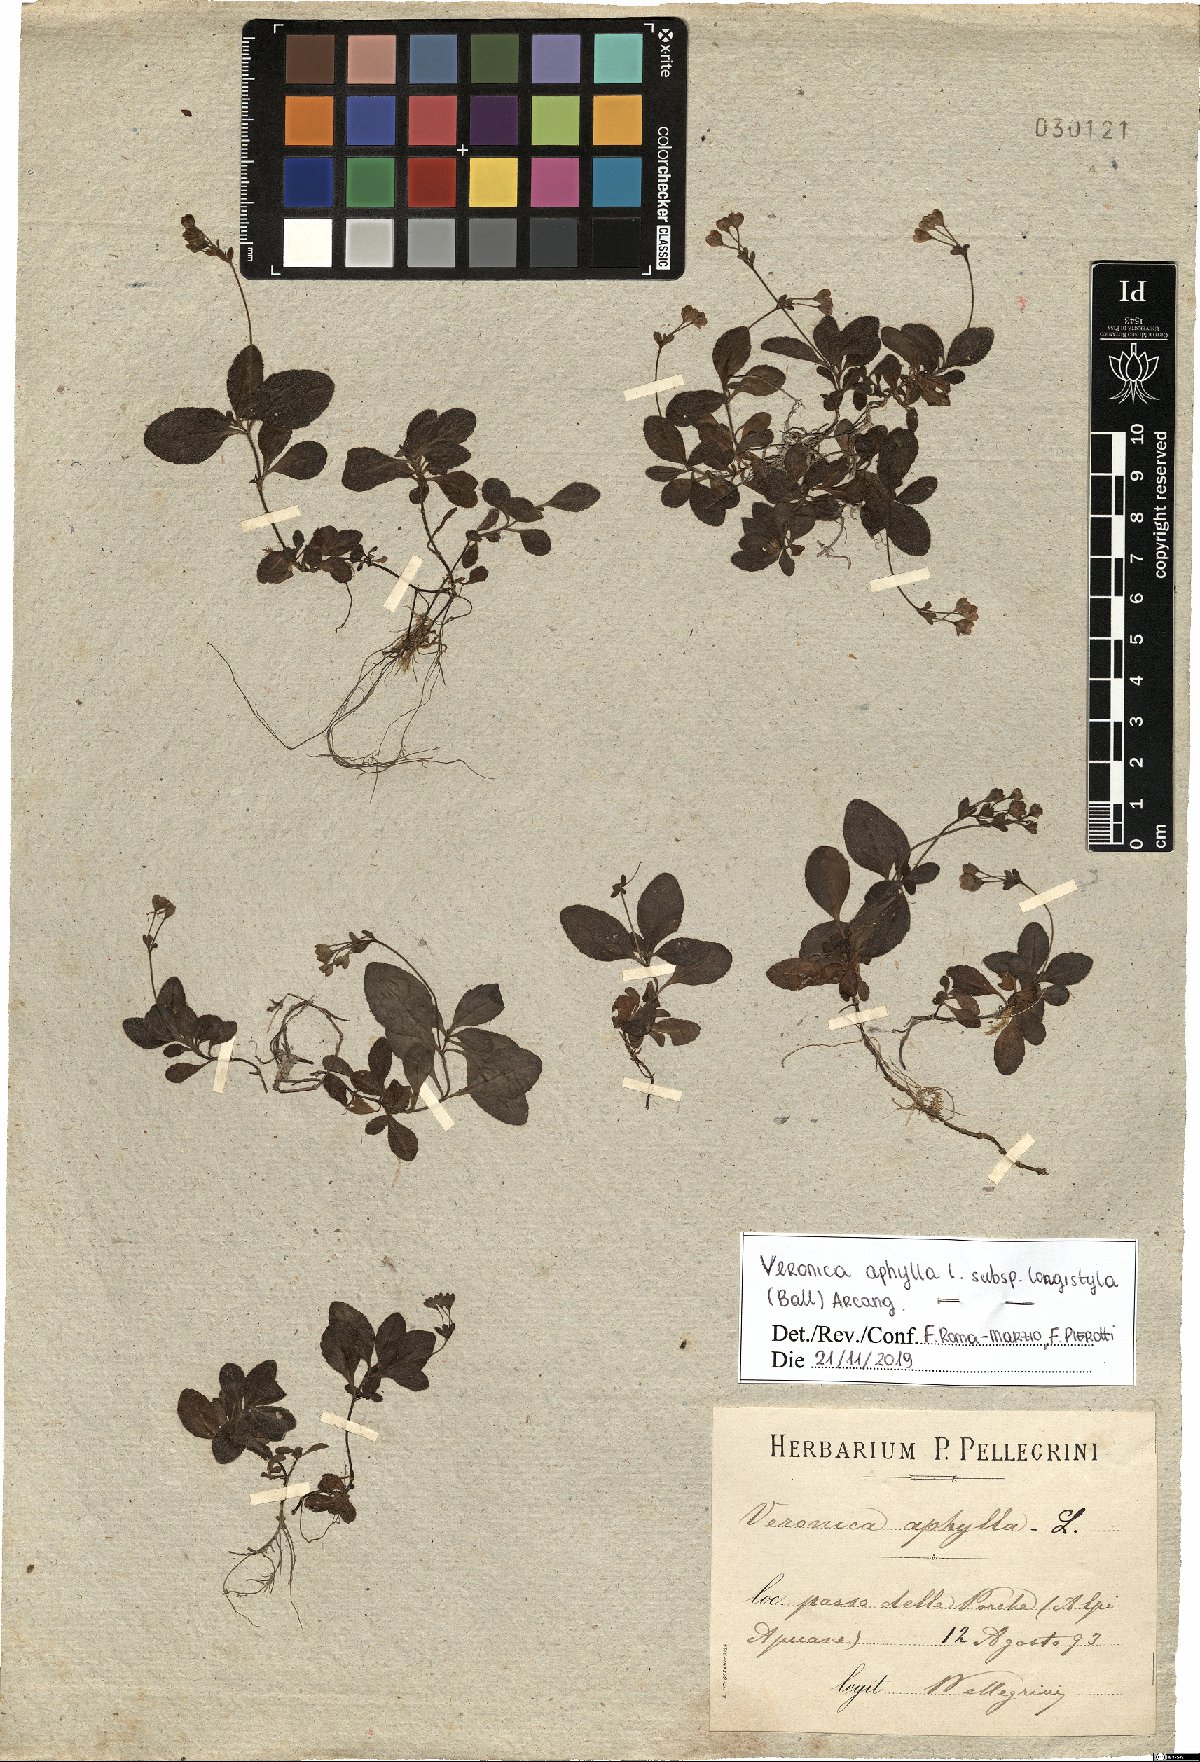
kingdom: Plantae
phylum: Tracheophyta
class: Magnoliopsida
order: Lamiales
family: Plantaginaceae
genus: Veronica
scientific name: Veronica aphylla
